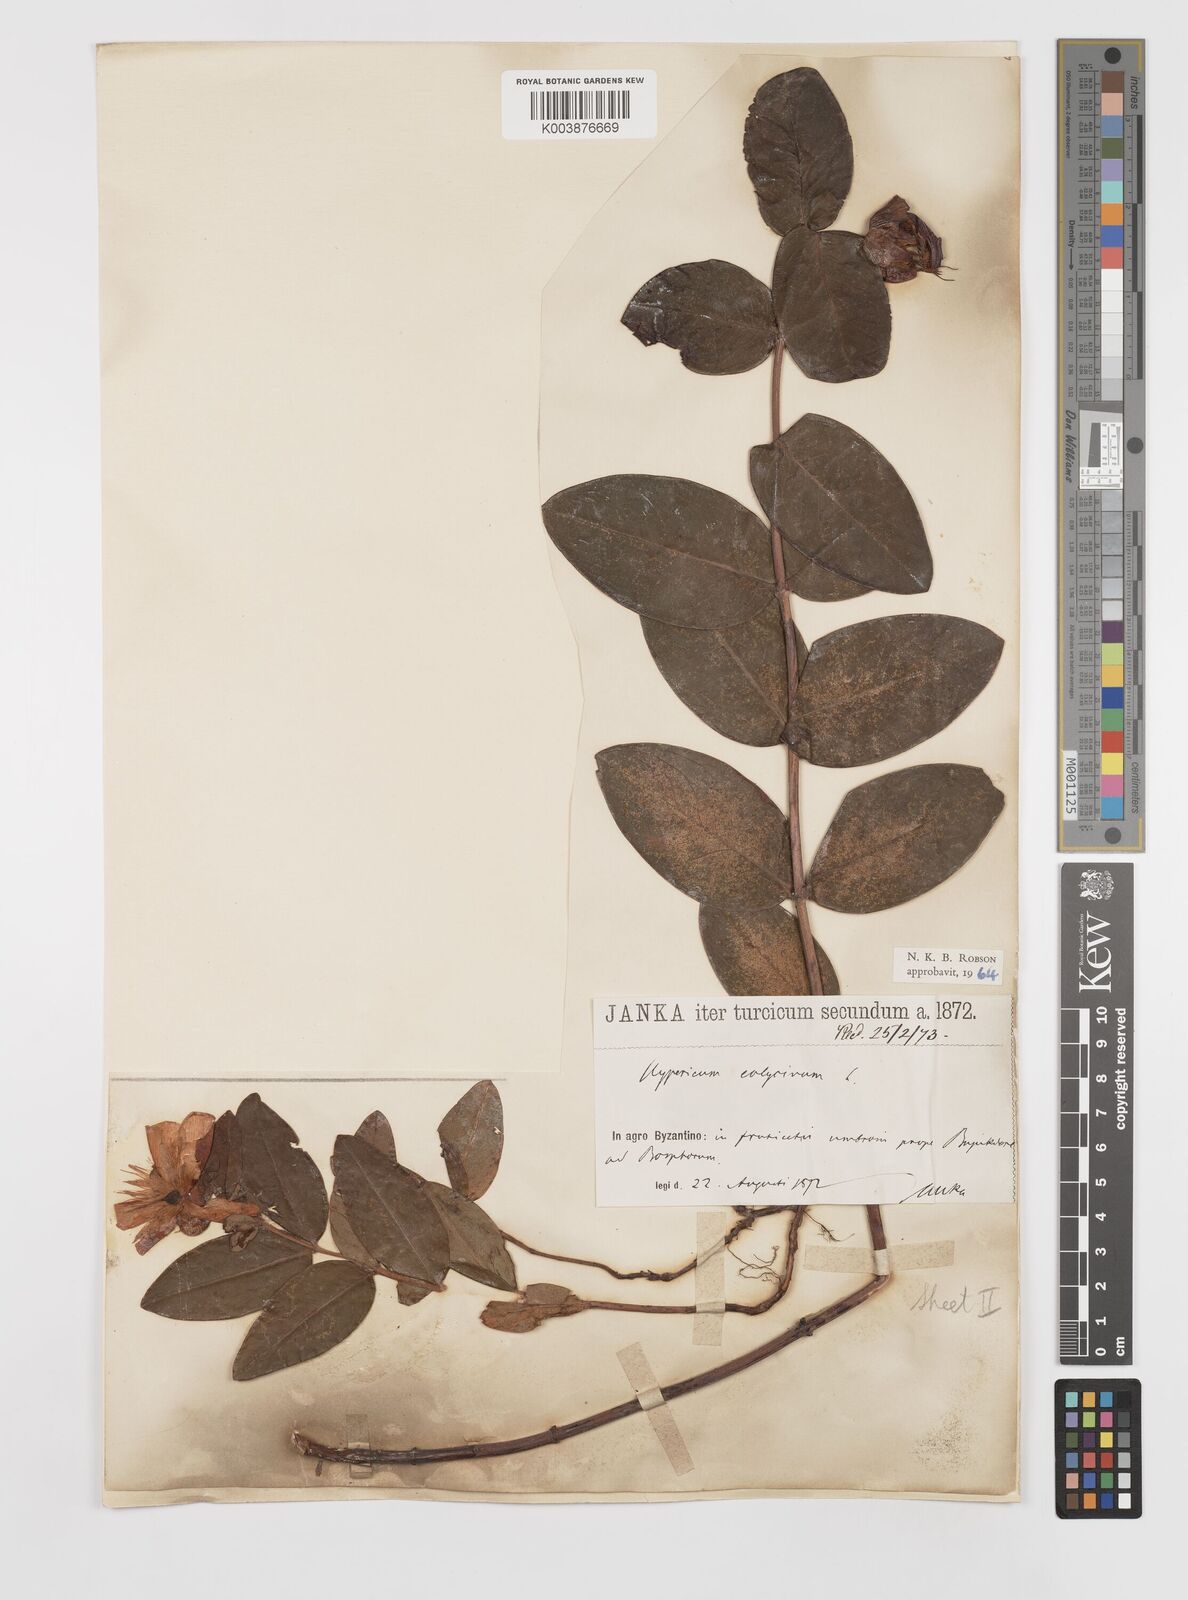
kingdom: Plantae
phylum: Tracheophyta
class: Magnoliopsida
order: Malpighiales
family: Hypericaceae
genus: Hypericum
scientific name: Hypericum calycinum
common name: Rose-of-sharon
